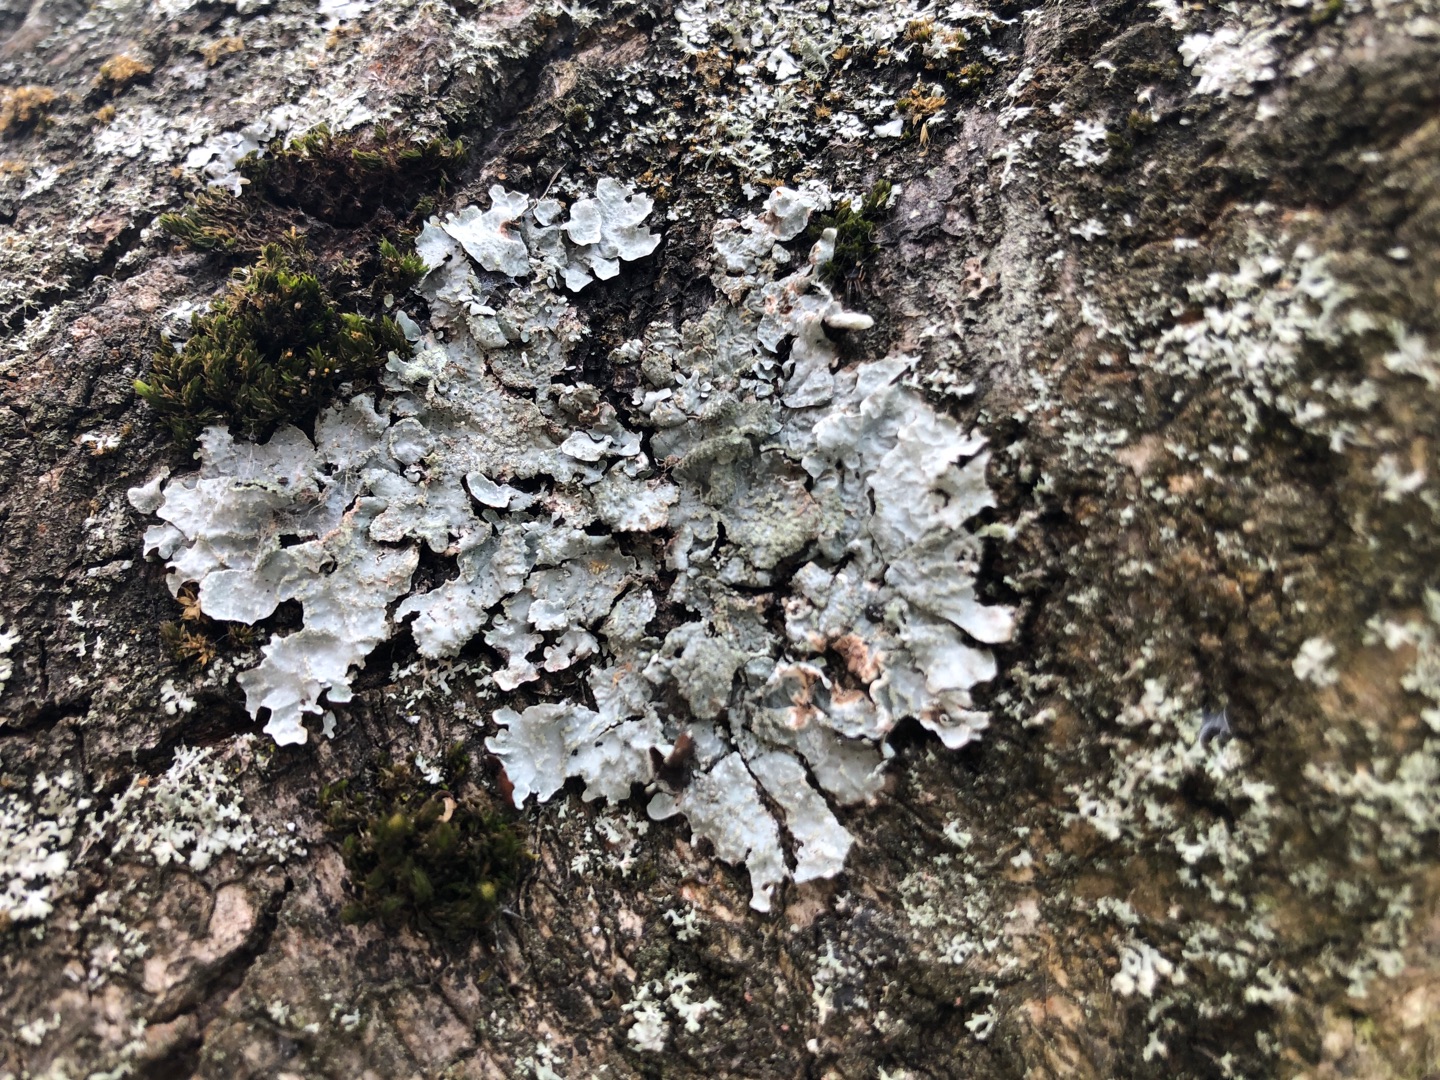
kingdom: Fungi
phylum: Ascomycota
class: Lecanoromycetes
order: Lecanorales
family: Parmeliaceae
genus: Parmelia
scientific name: Parmelia sulcata
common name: Rynket skållav
